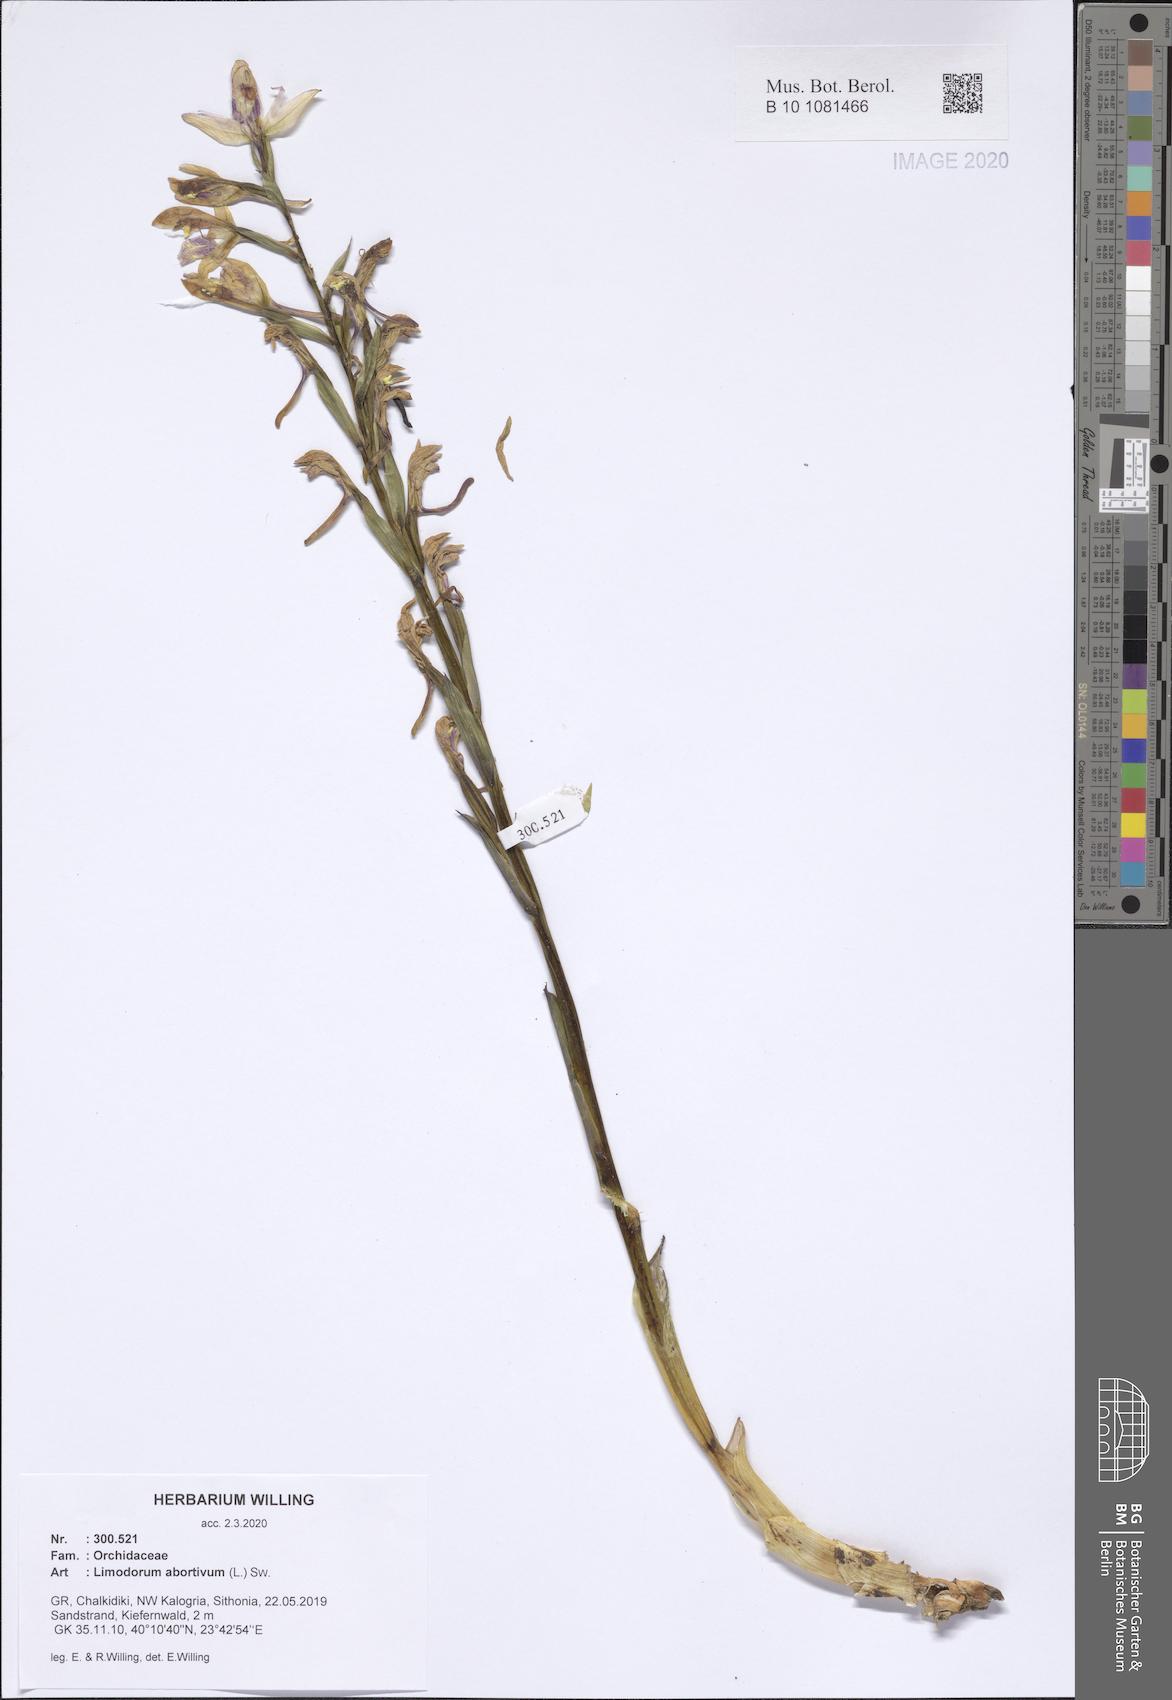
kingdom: Plantae
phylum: Tracheophyta
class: Liliopsida
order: Asparagales
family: Orchidaceae
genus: Limodorum
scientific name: Limodorum abortivum
